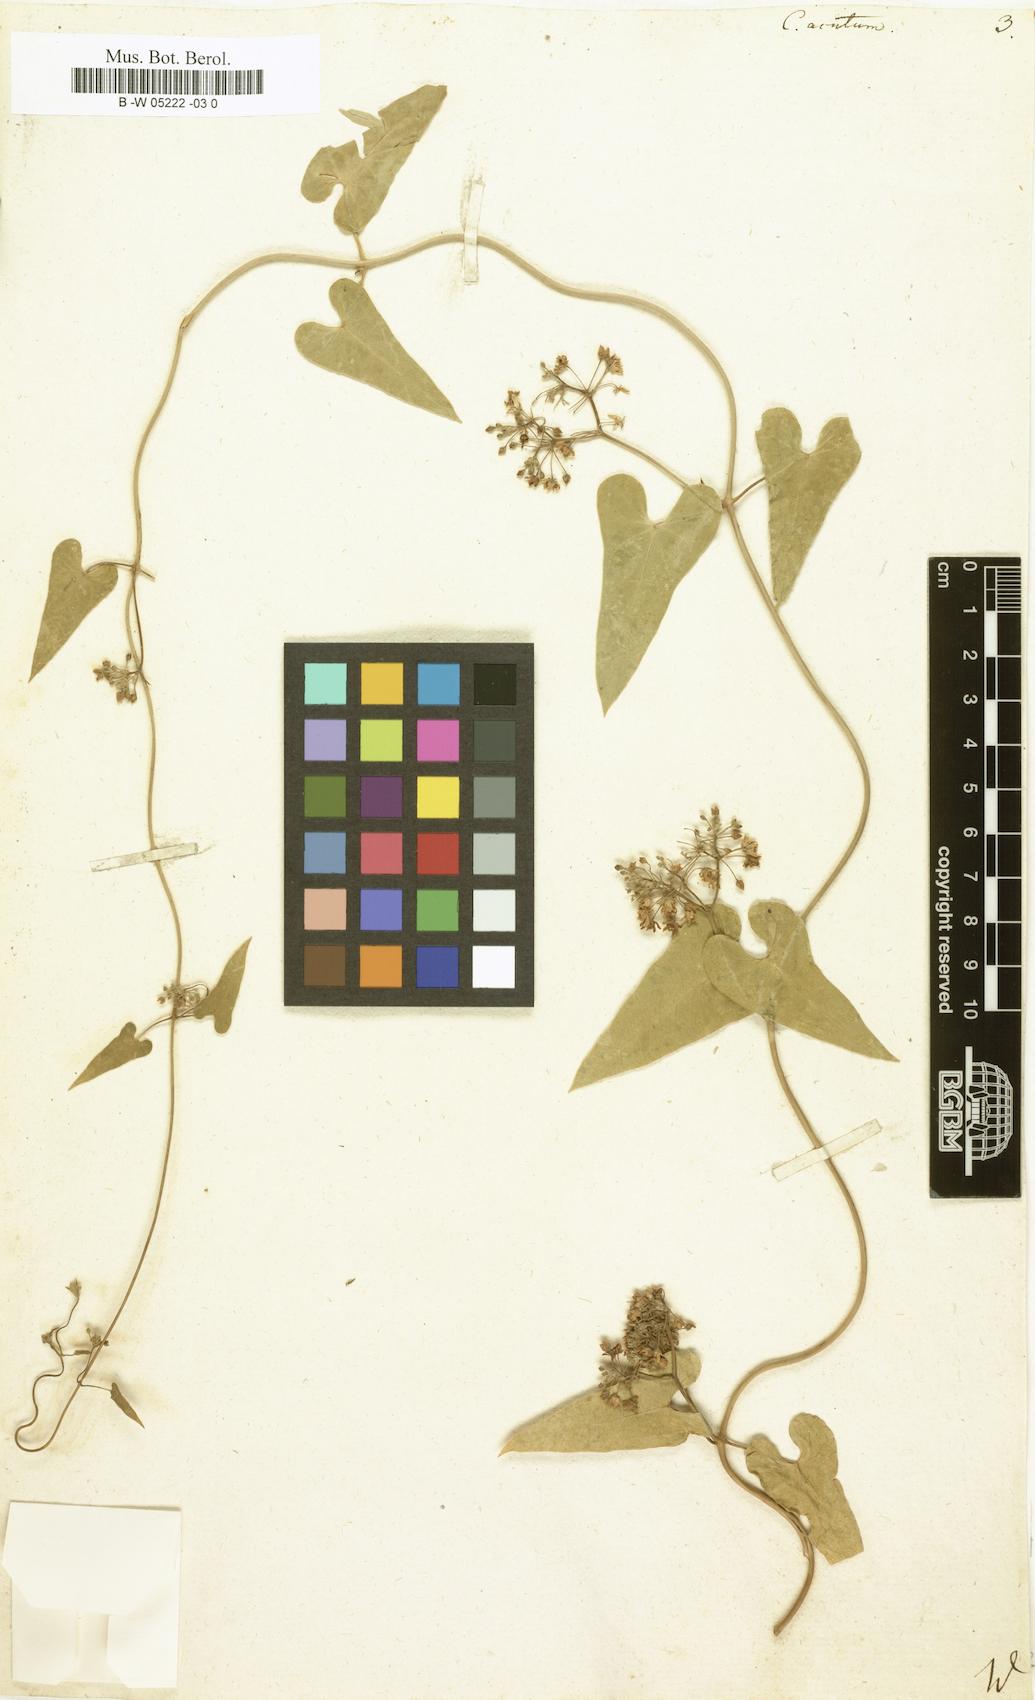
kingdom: Plantae
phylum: Tracheophyta
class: Magnoliopsida
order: Gentianales
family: Apocynaceae
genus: Cynanchum
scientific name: Cynanchum acutum
